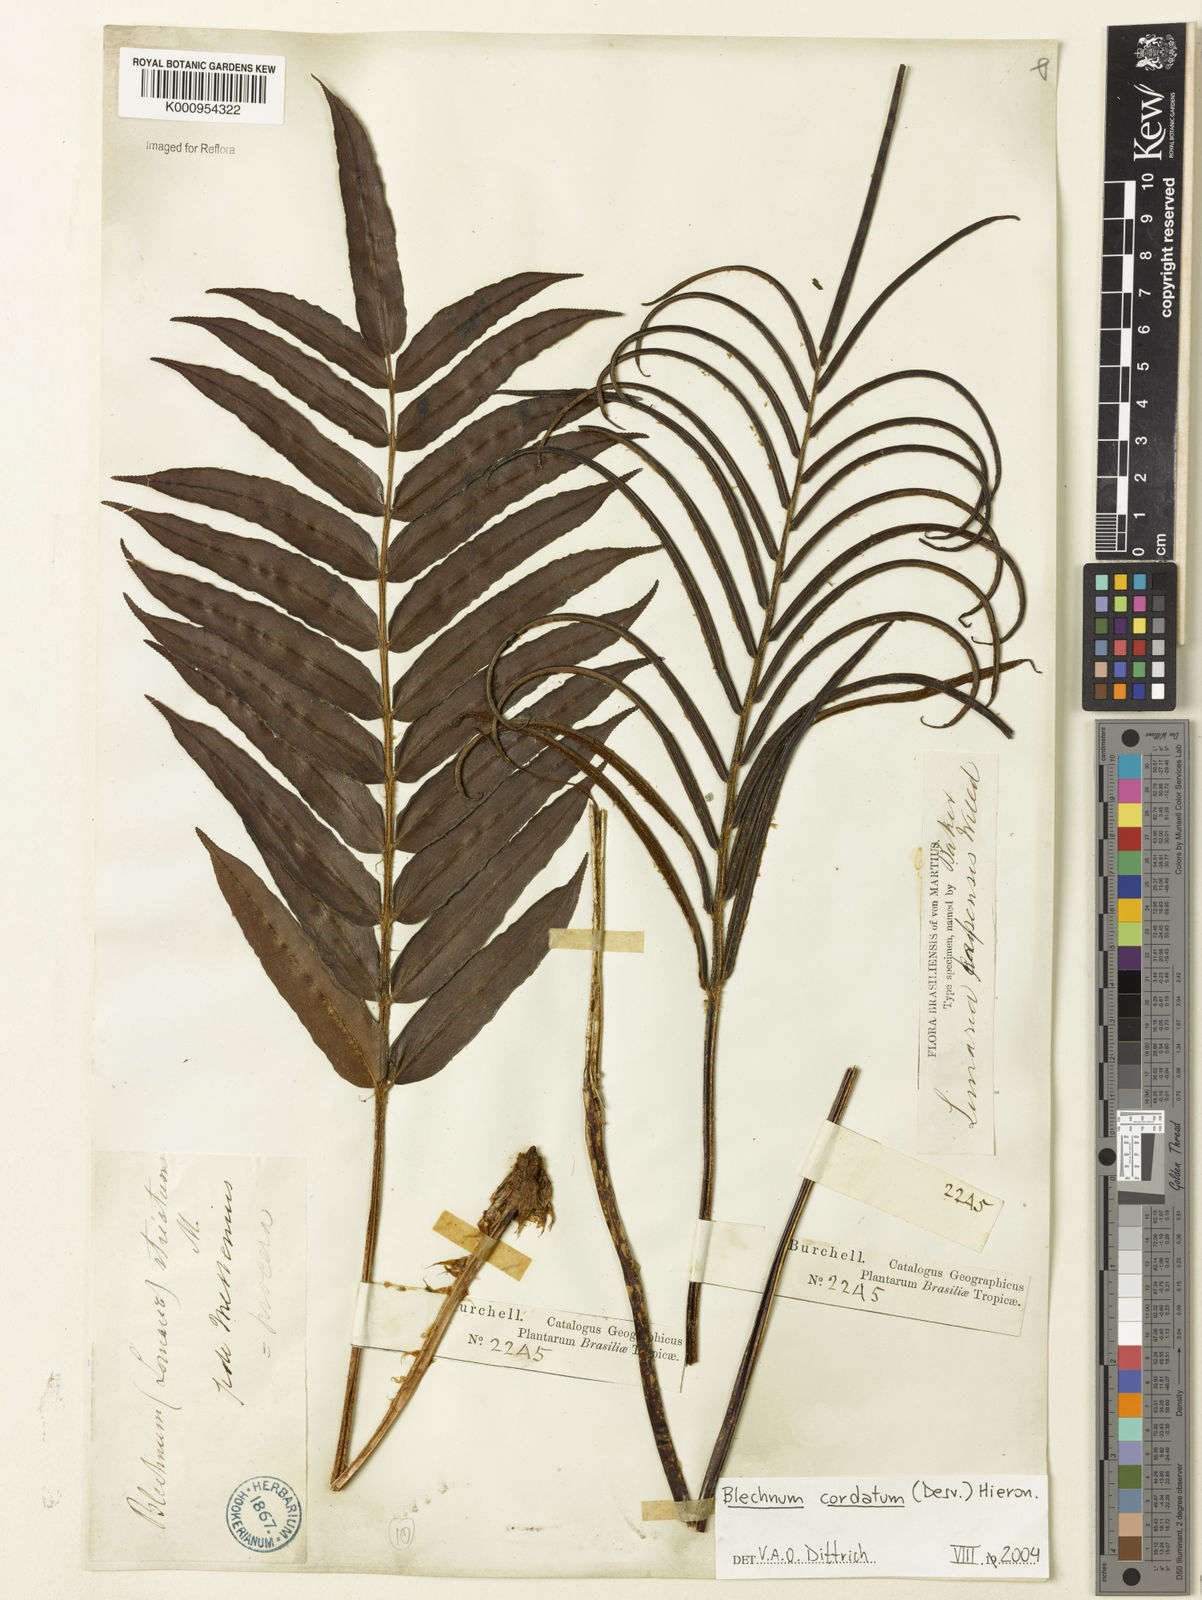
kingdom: Plantae
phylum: Tracheophyta
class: Polypodiopsida
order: Polypodiales
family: Blechnaceae
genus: Parablechnum
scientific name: Parablechnum cordatum
